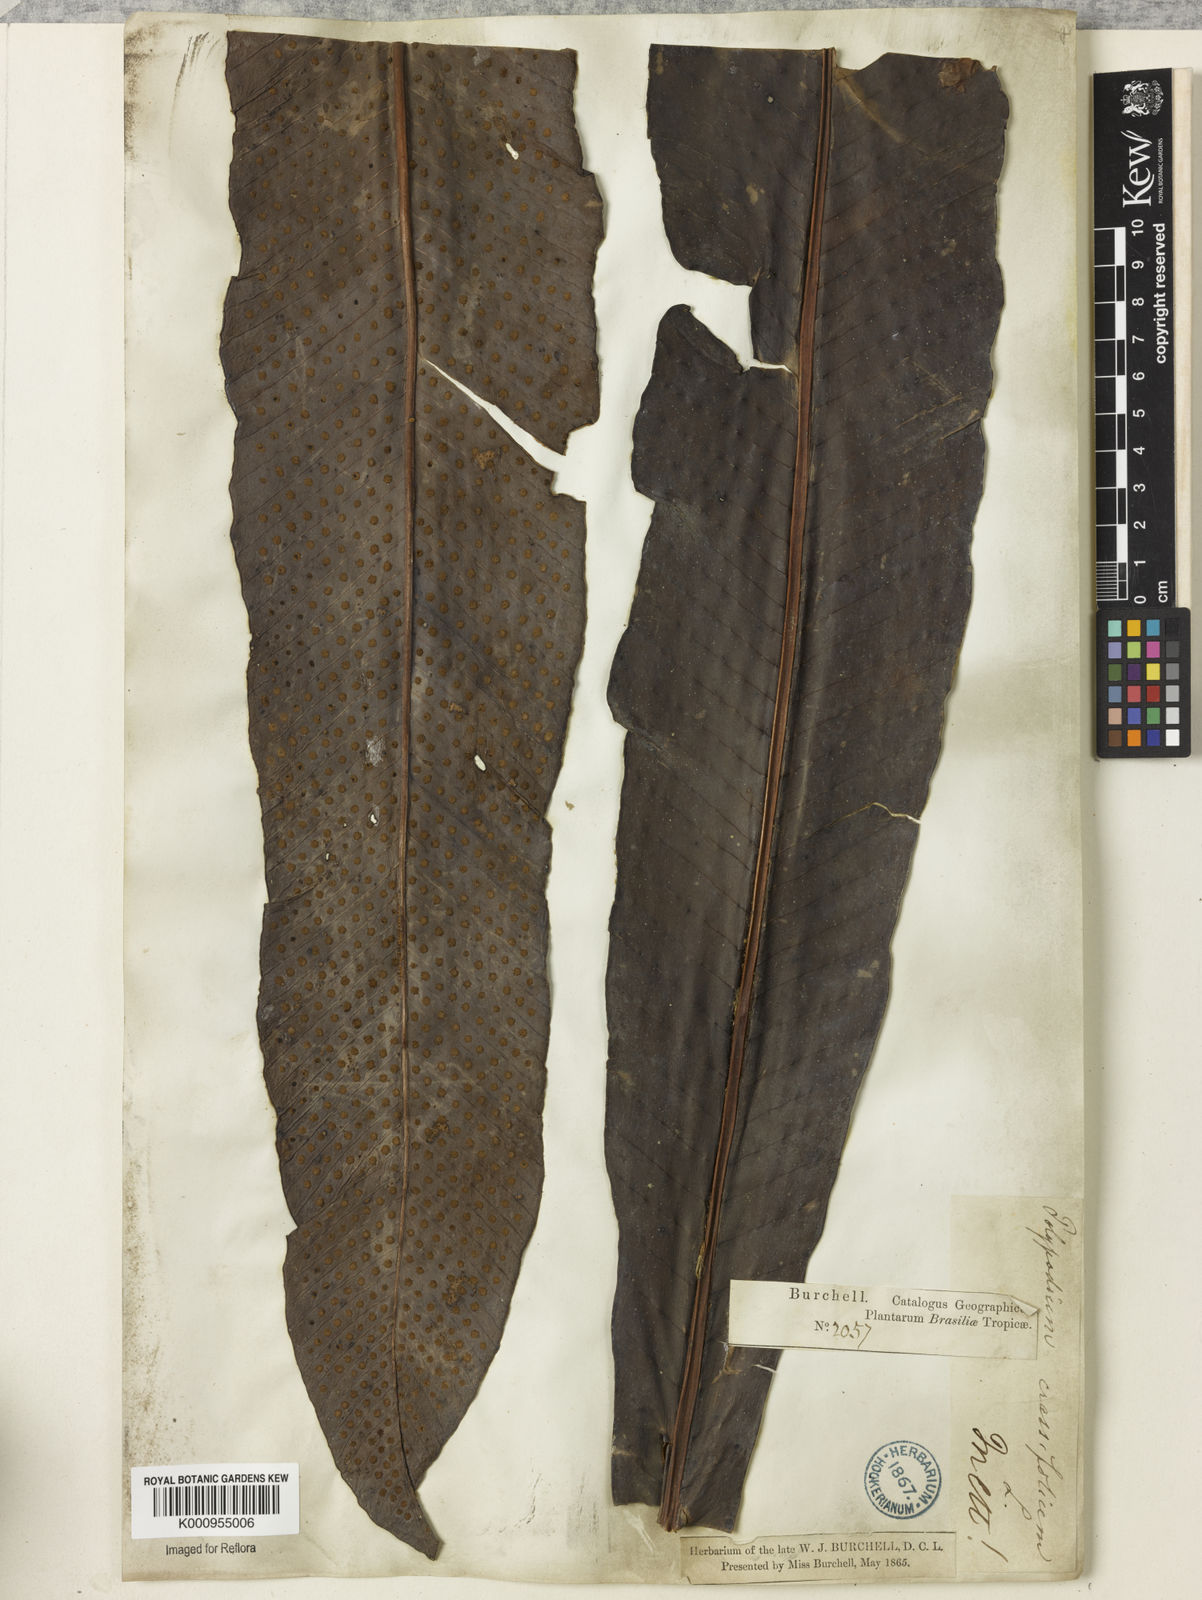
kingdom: Plantae
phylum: Tracheophyta
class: Polypodiopsida
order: Polypodiales
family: Polypodiaceae
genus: Niphidium
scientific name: Niphidium crassifolium
